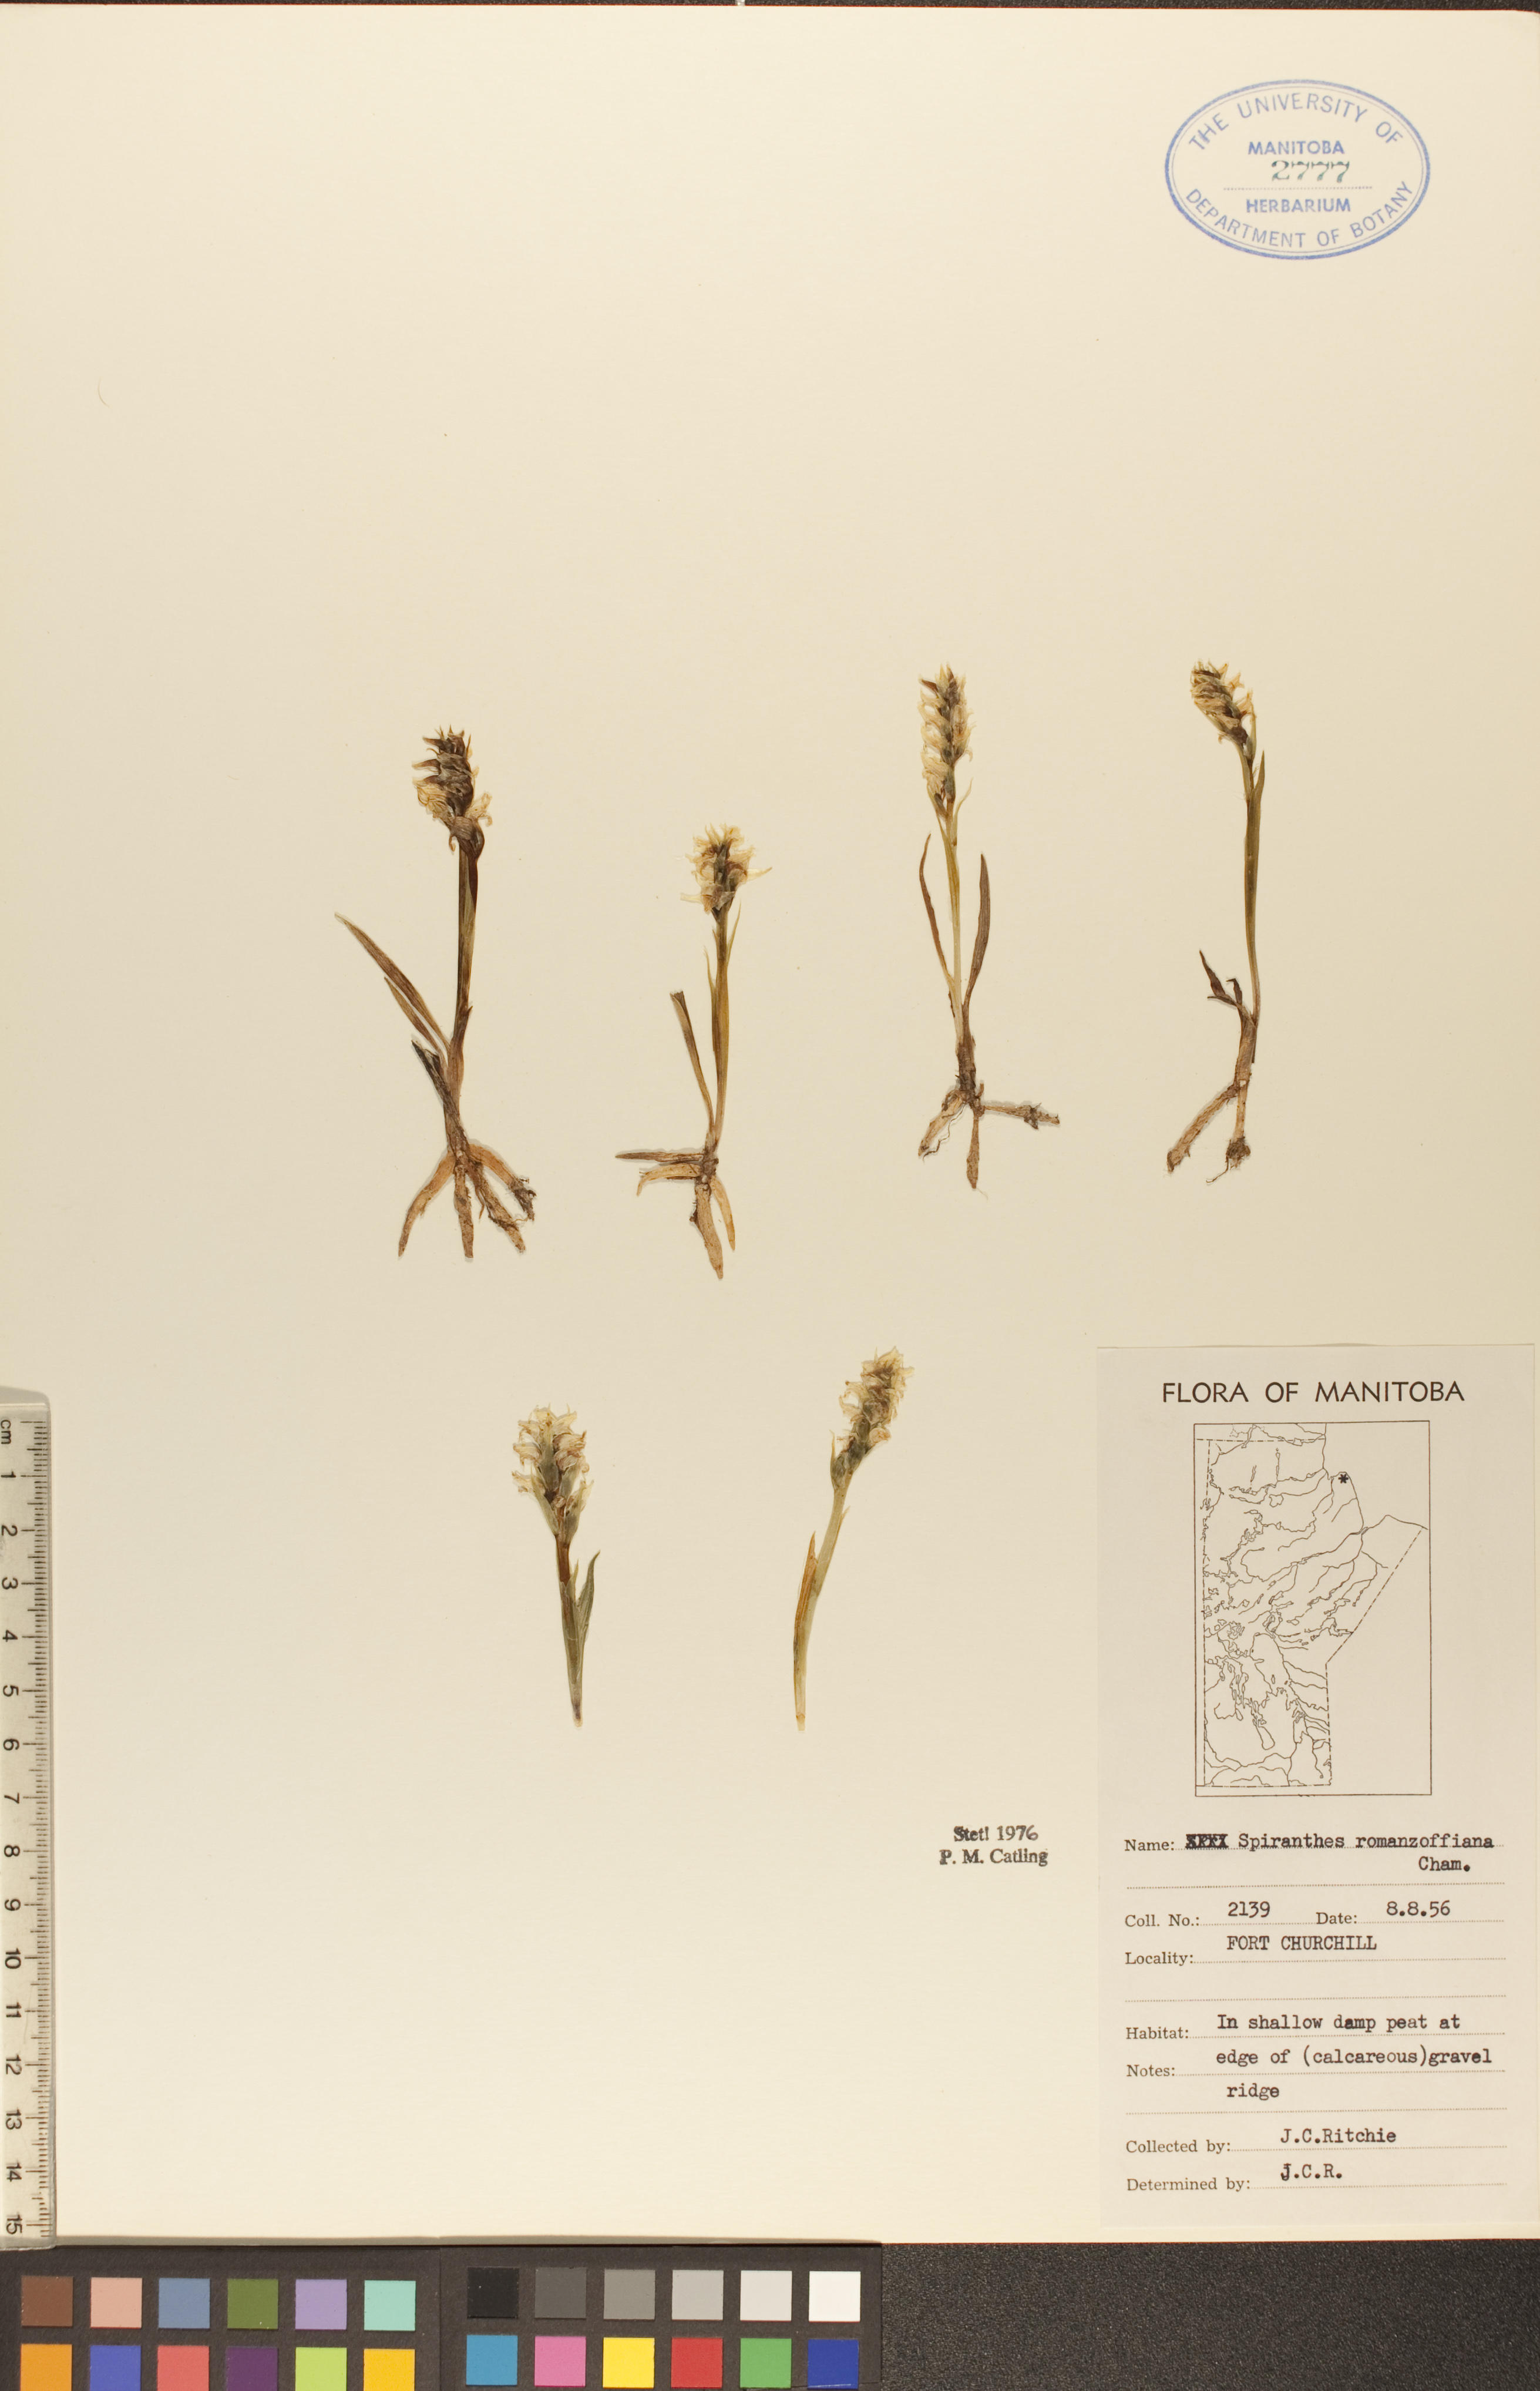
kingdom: Plantae
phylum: Tracheophyta
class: Liliopsida
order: Asparagales
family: Orchidaceae
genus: Spiranthes
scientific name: Spiranthes romanzoffiana
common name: Irish lady's-tresses
